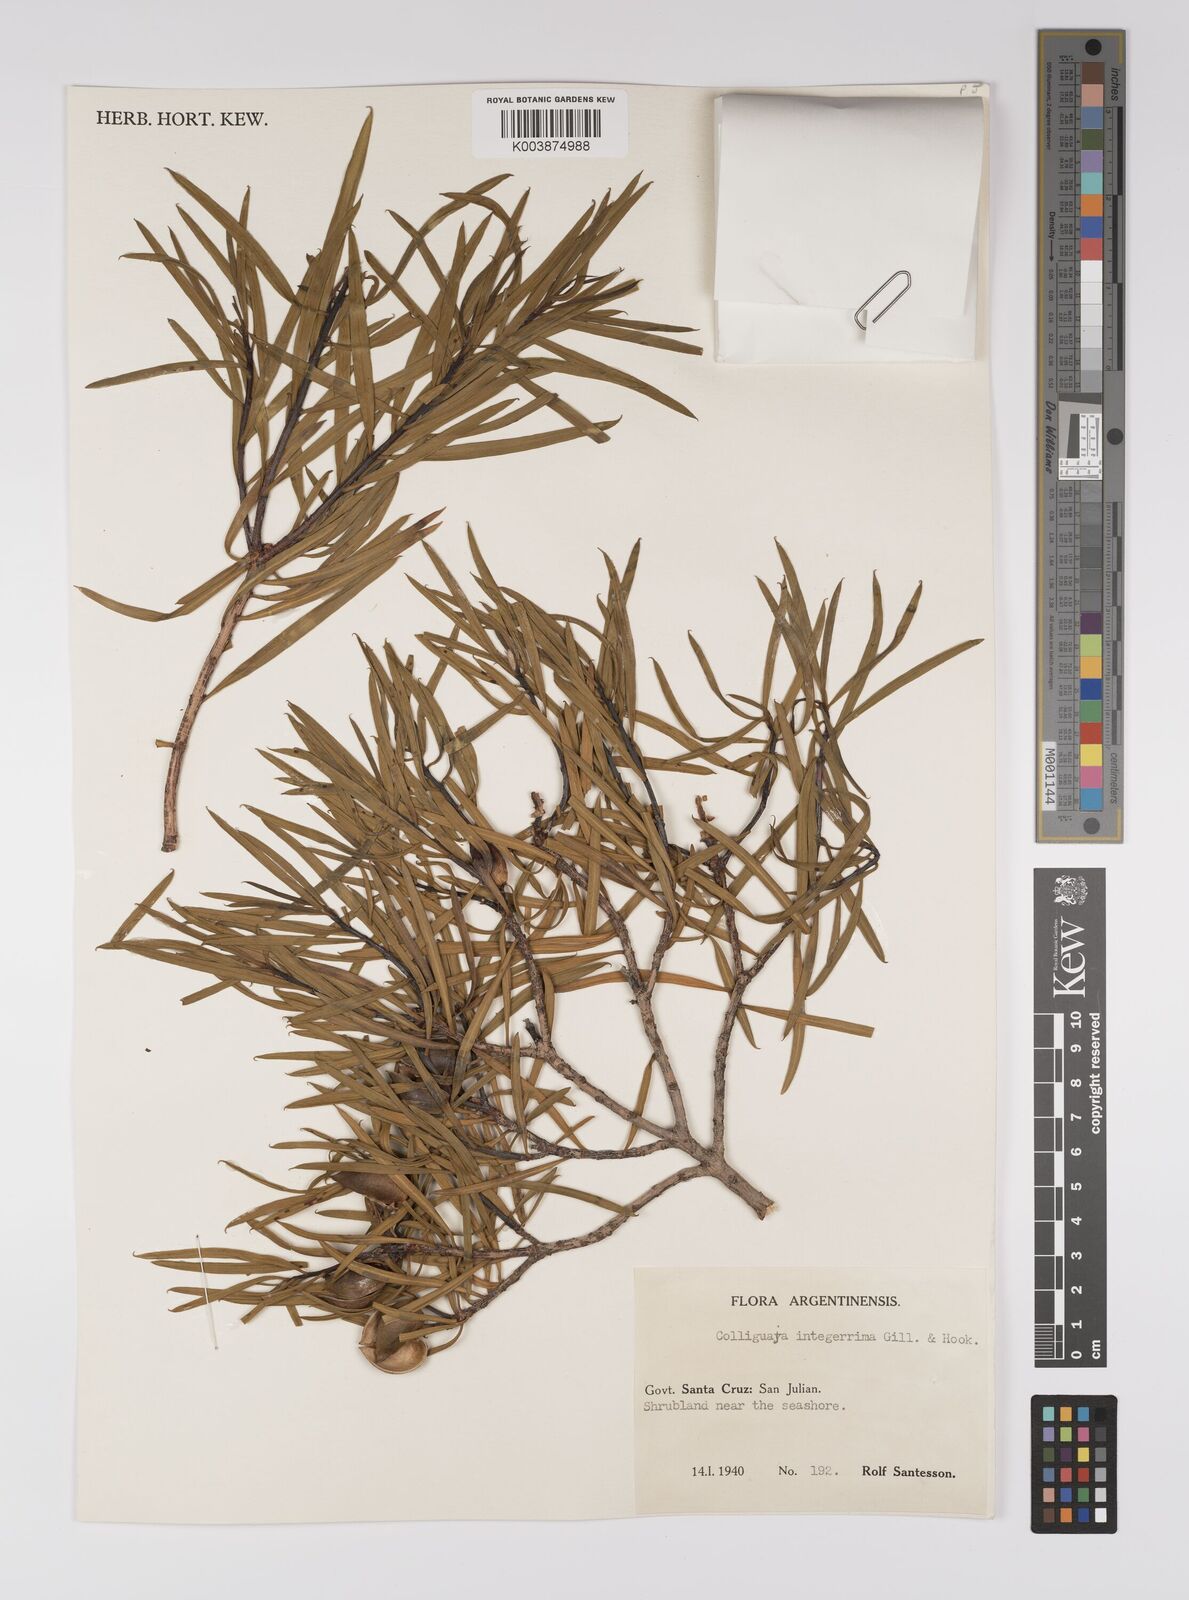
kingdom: Plantae
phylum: Tracheophyta
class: Magnoliopsida
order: Malpighiales
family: Euphorbiaceae
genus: Colliguaja
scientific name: Colliguaja integerrima
